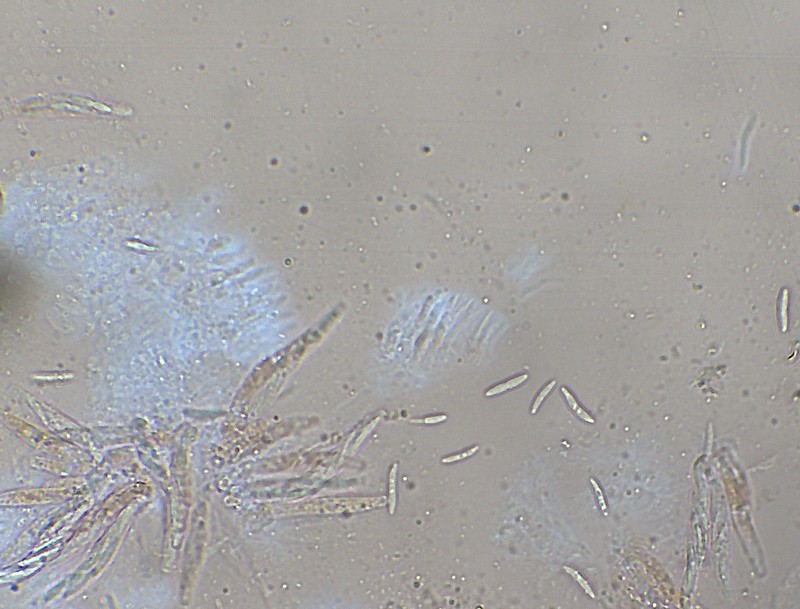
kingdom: Fungi
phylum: Ascomycota
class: Sordariomycetes
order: Hypocreales
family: Niessliaceae
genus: Niesslia
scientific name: Niesslia exilis
